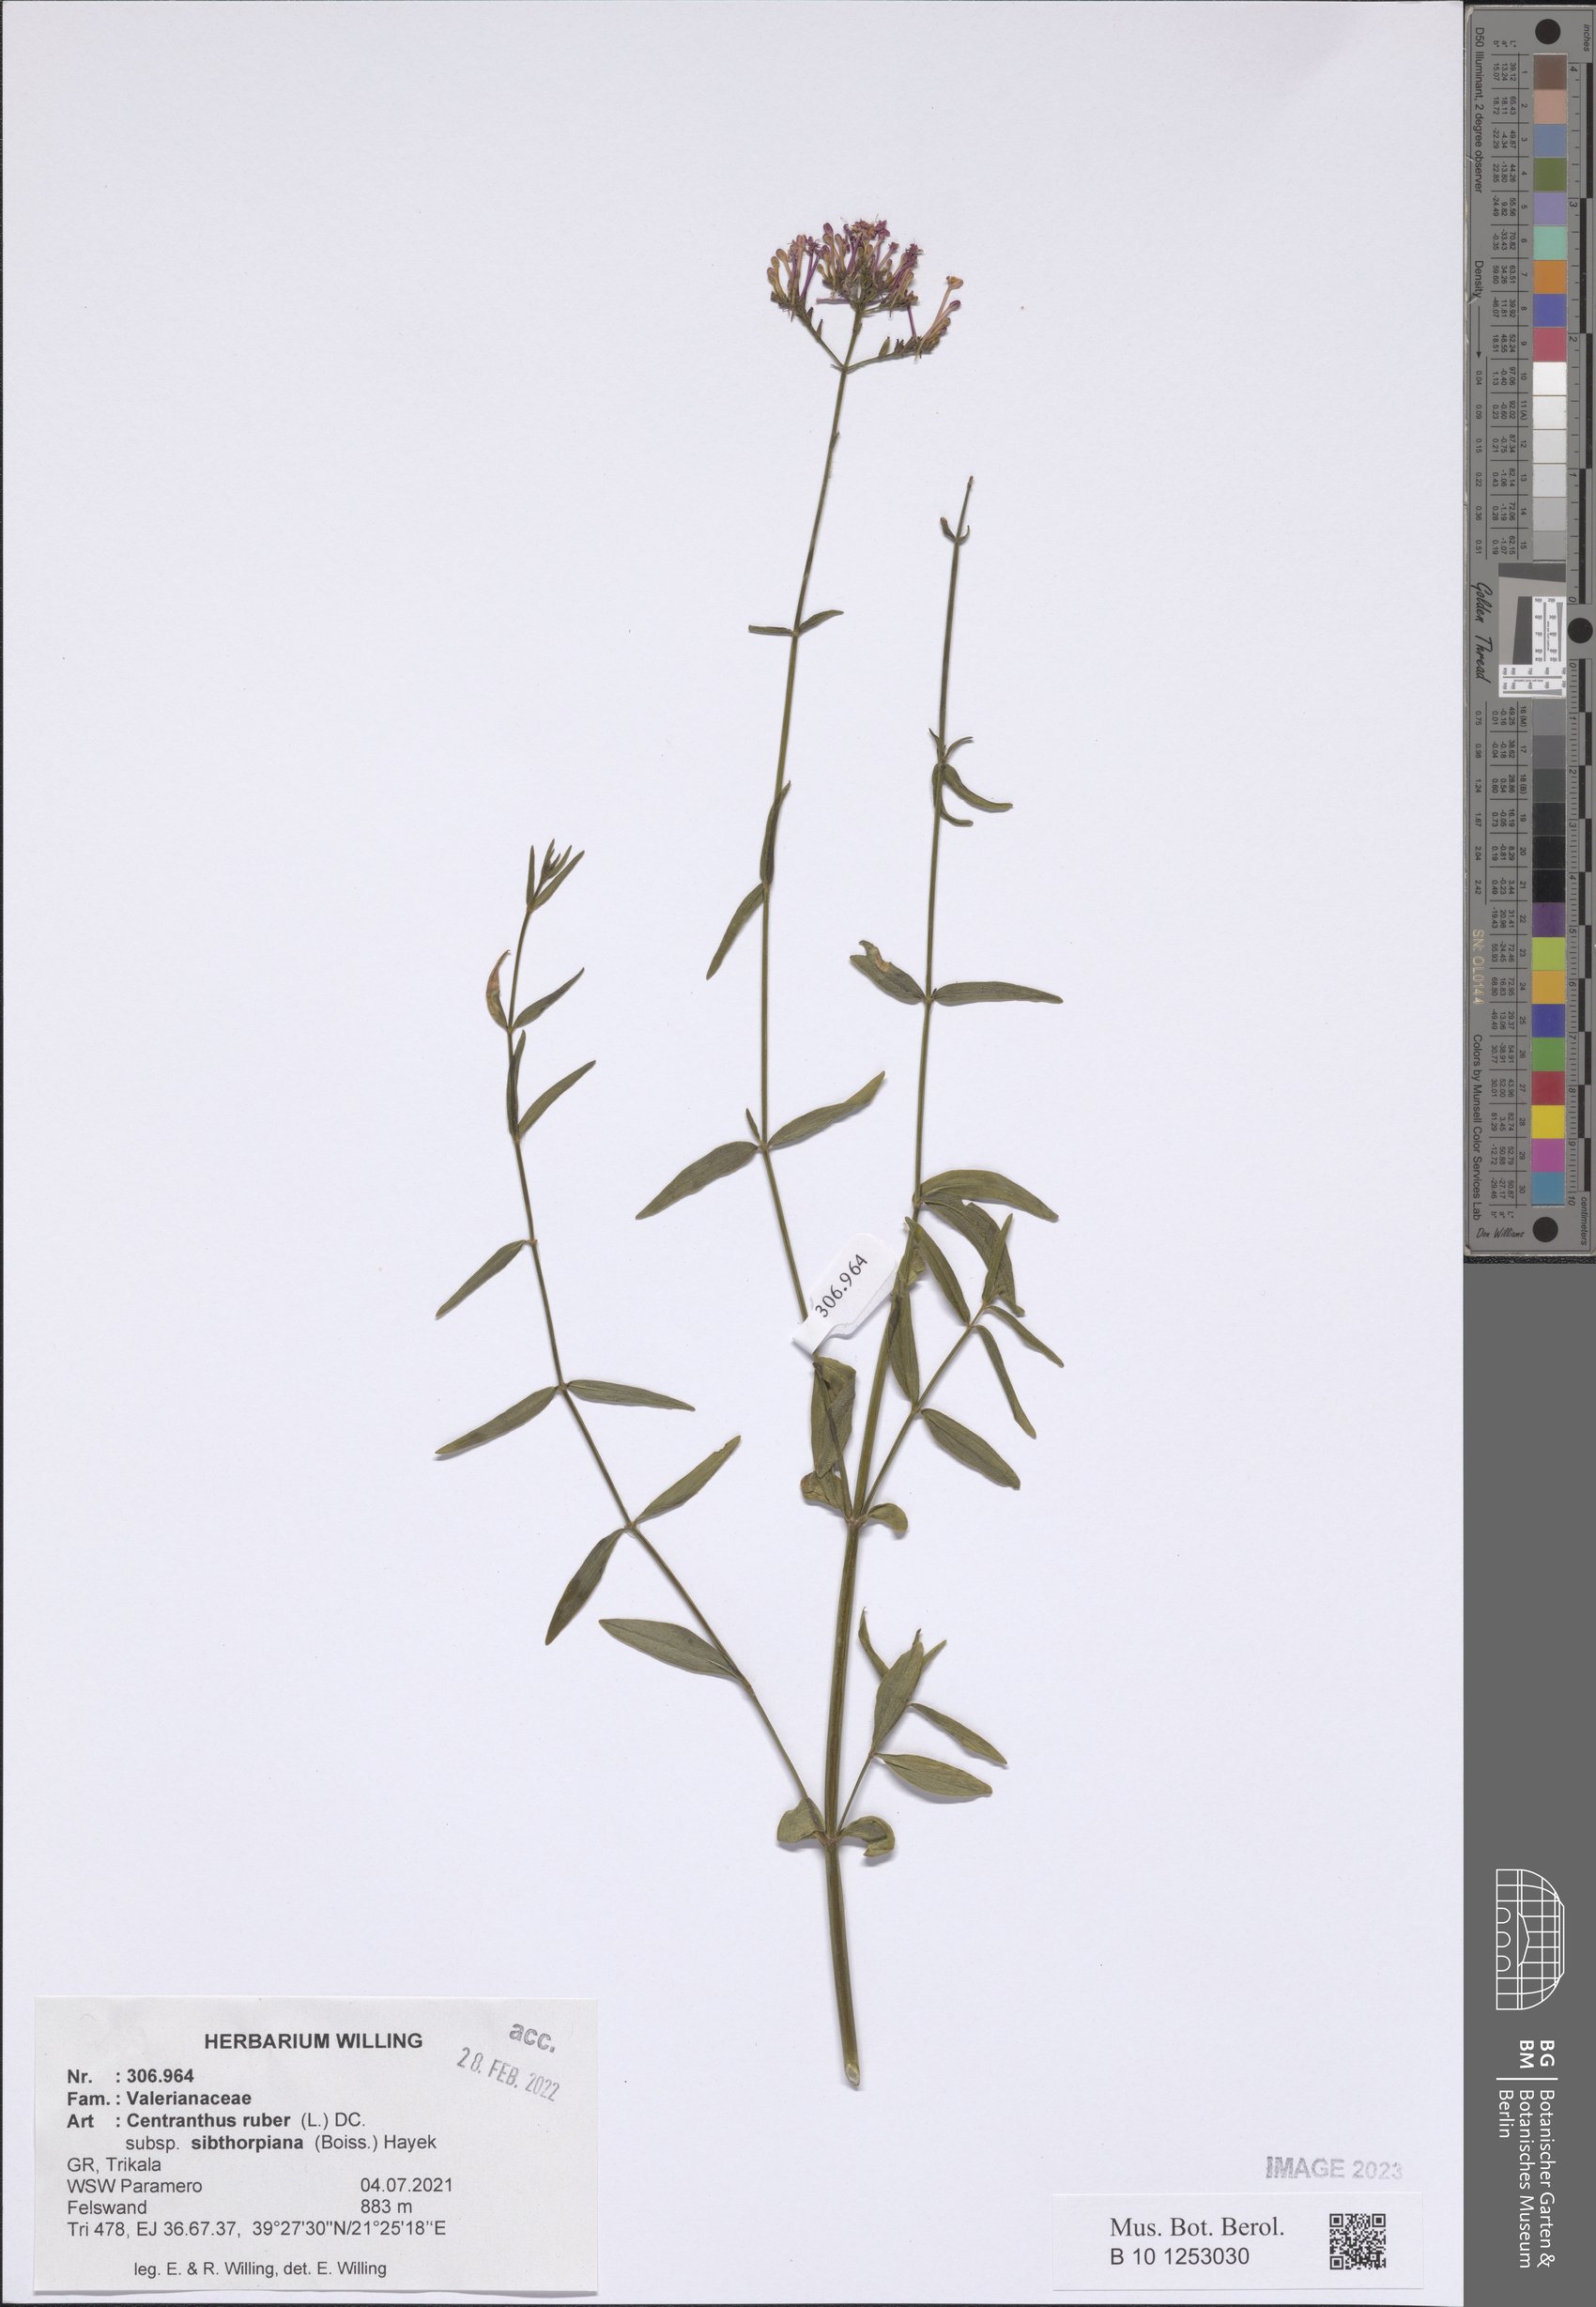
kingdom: Plantae
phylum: Tracheophyta
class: Magnoliopsida
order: Dipsacales
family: Caprifoliaceae
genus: Centranthus
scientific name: Centranthus ruber
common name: Red valerian
